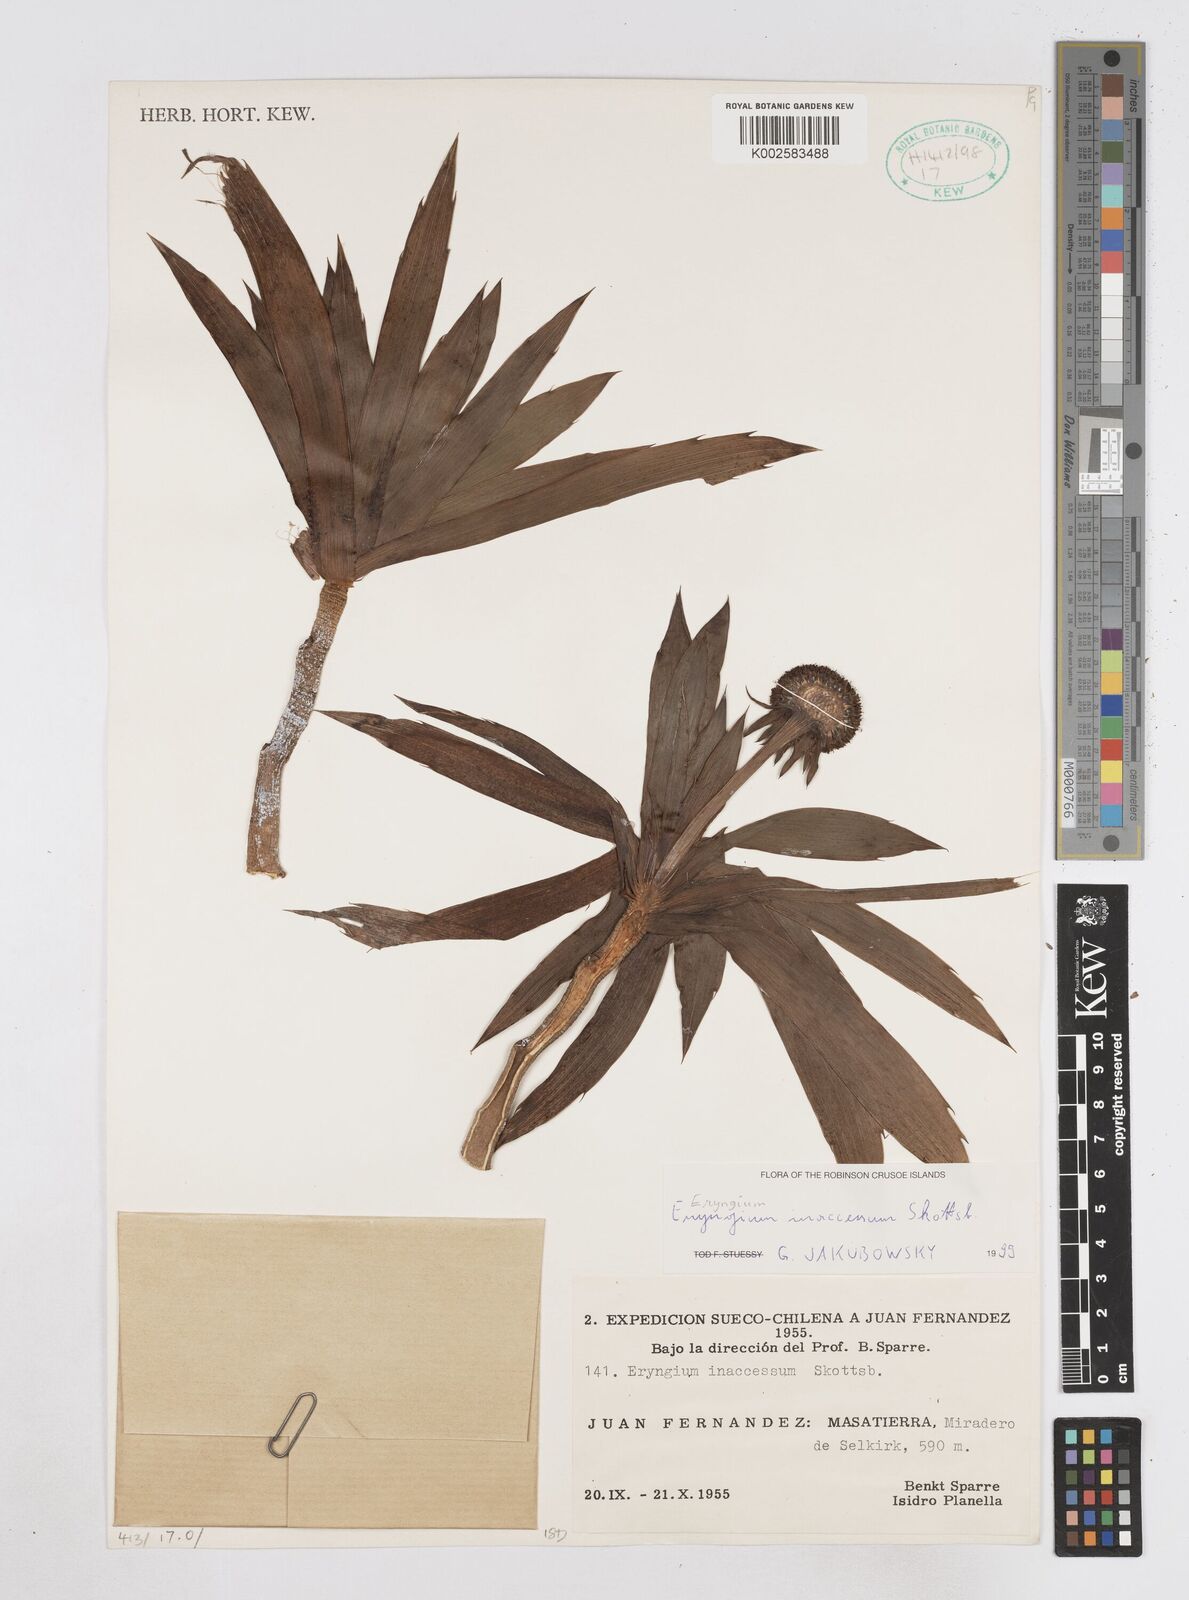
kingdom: Plantae
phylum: Tracheophyta
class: Magnoliopsida
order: Apiales
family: Apiaceae
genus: Eryngium
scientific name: Eryngium inaccessum
